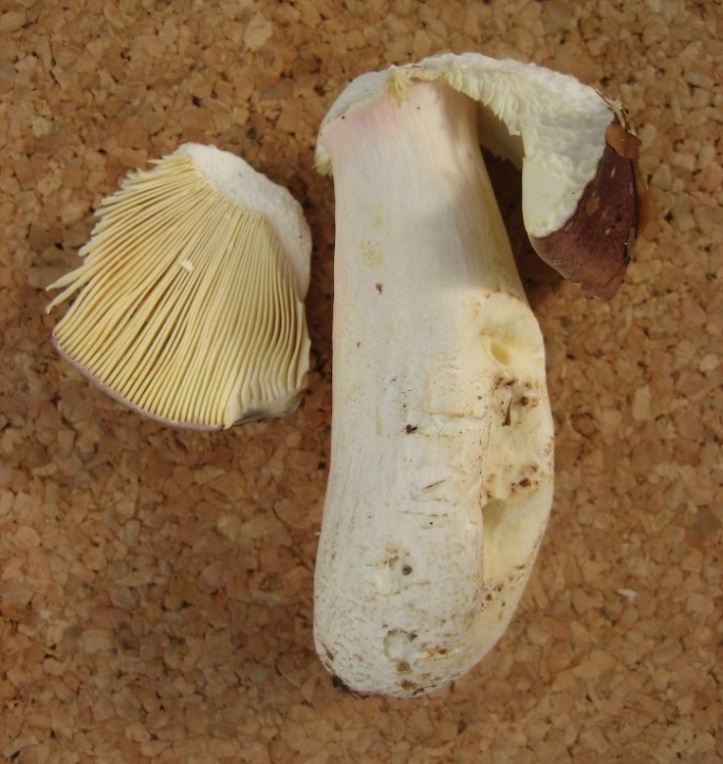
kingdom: Fungi
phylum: Basidiomycota
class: Agaricomycetes
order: Russulales
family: Russulaceae
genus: Russula
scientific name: Russula olivacea
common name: stor skørhat
